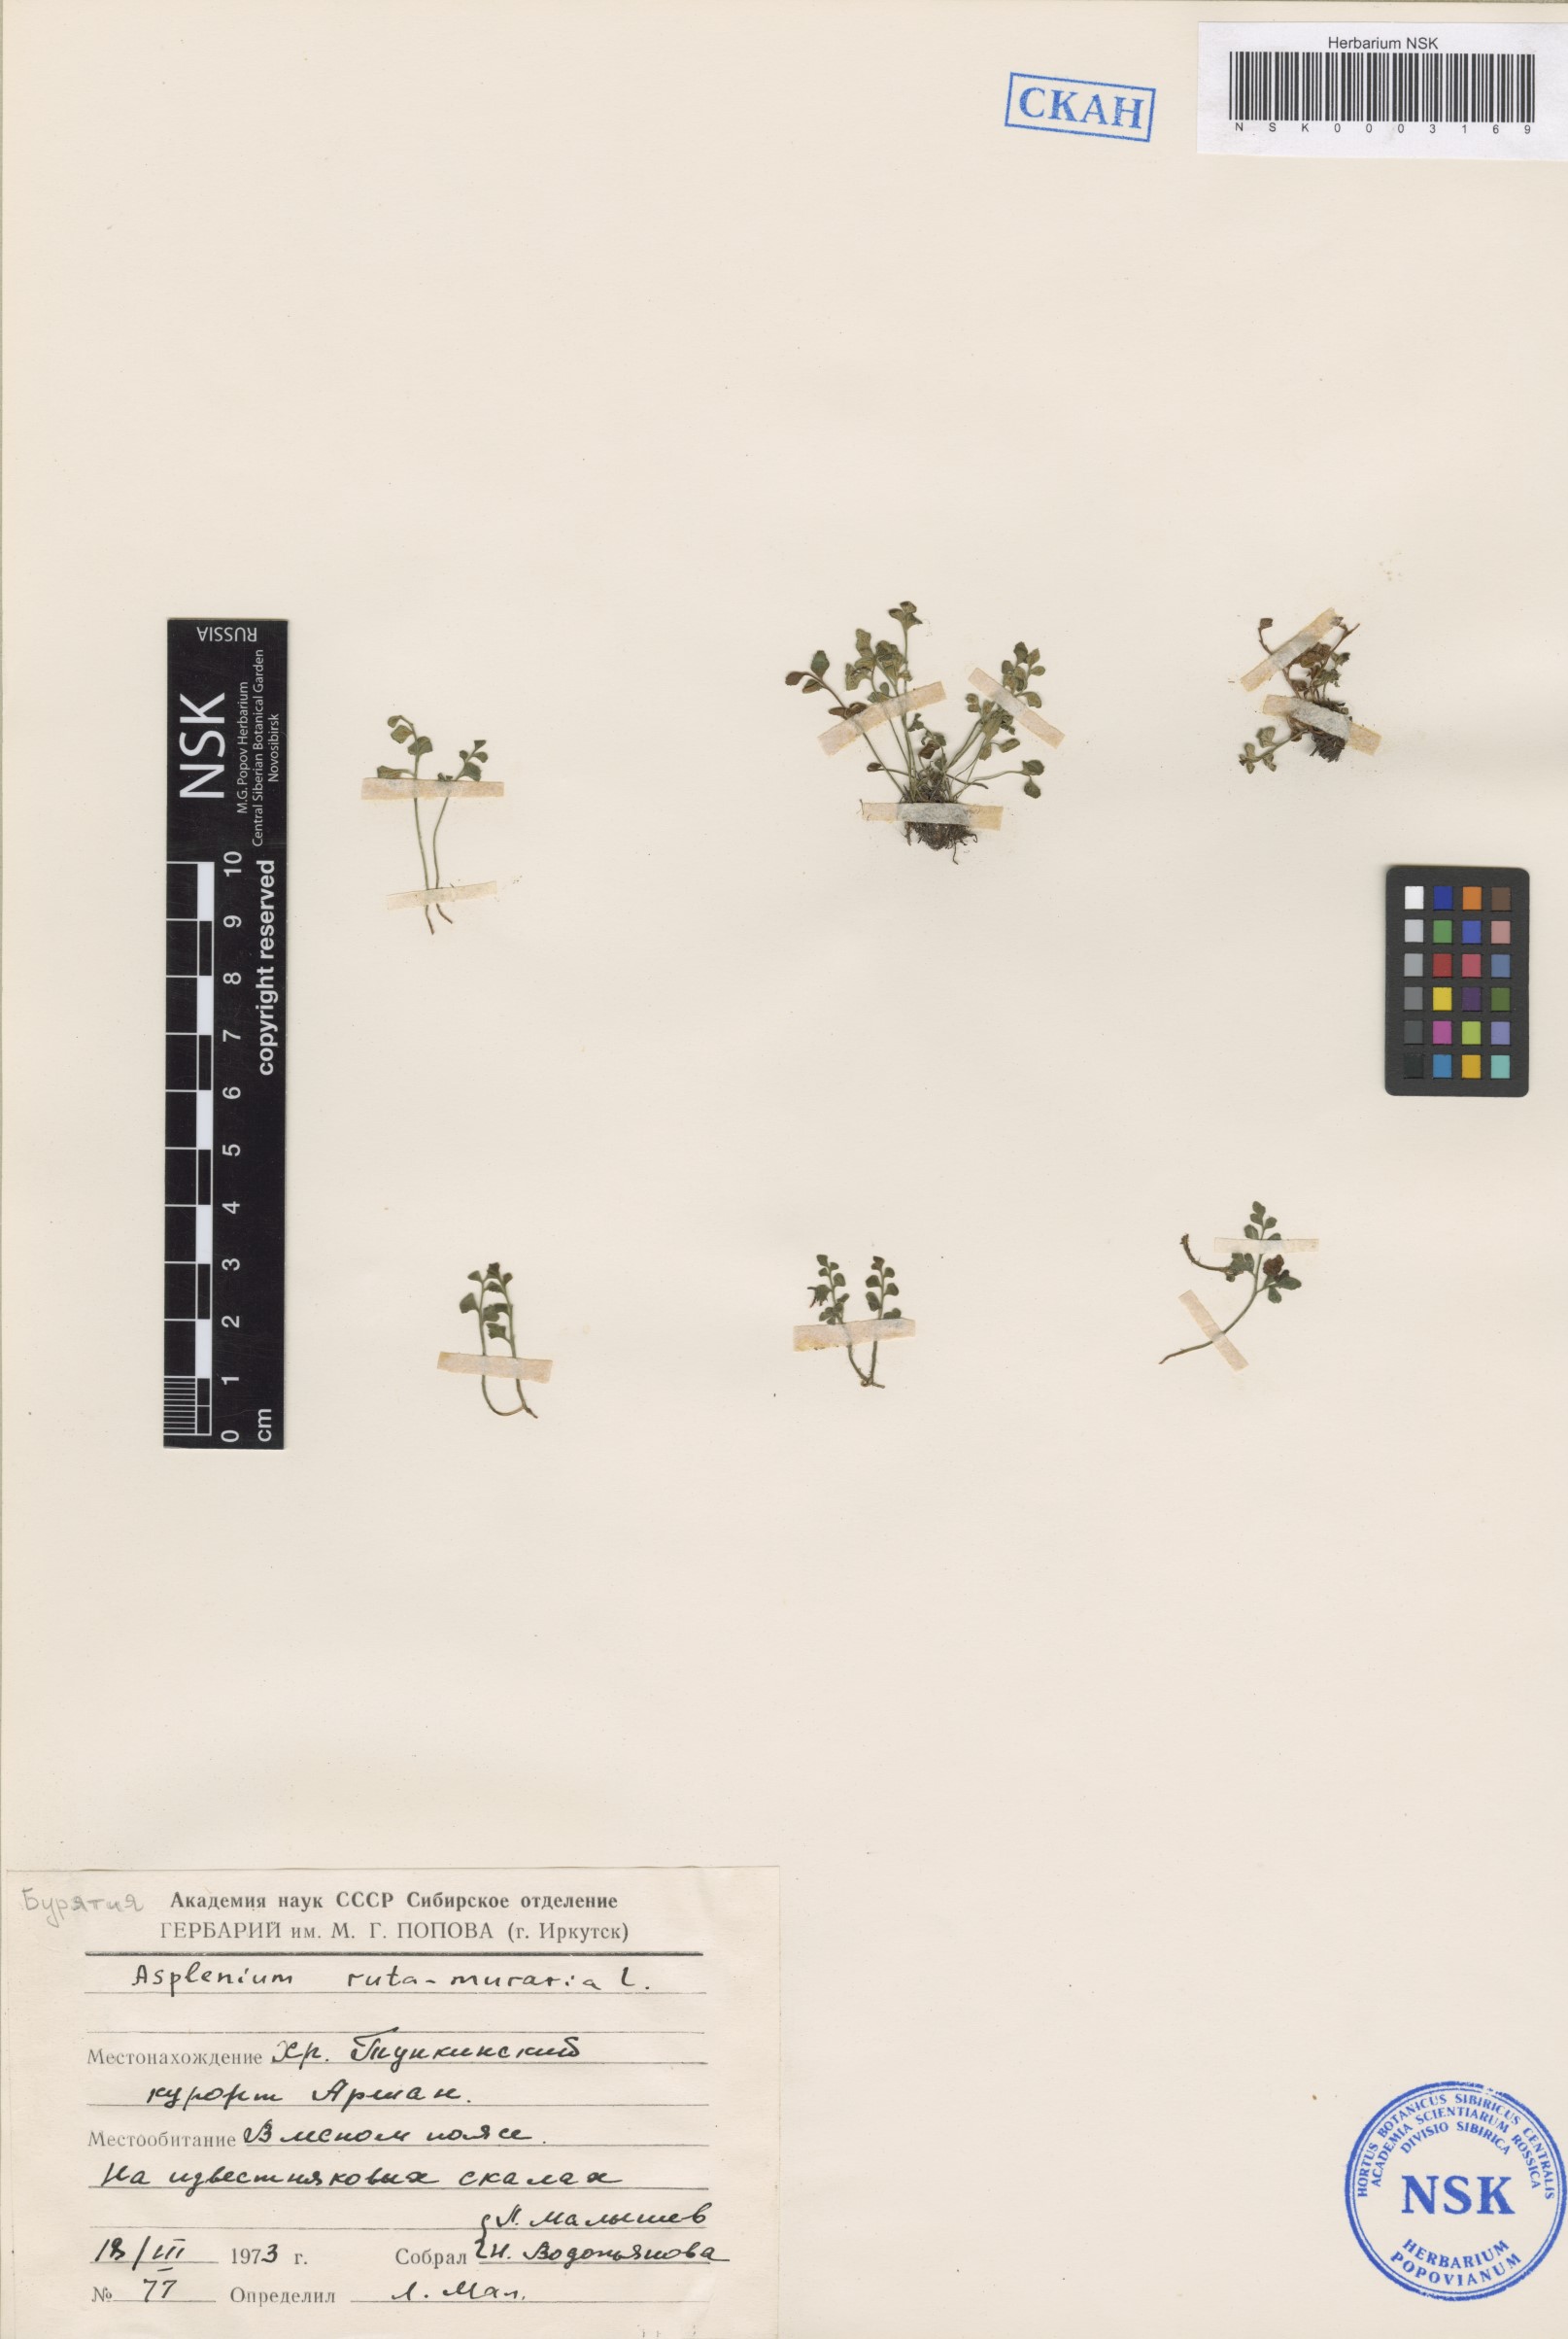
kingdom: Plantae
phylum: Tracheophyta
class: Polypodiopsida
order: Polypodiales
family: Aspleniaceae
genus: Asplenium
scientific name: Asplenium ruta-muraria
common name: Wall-rue
